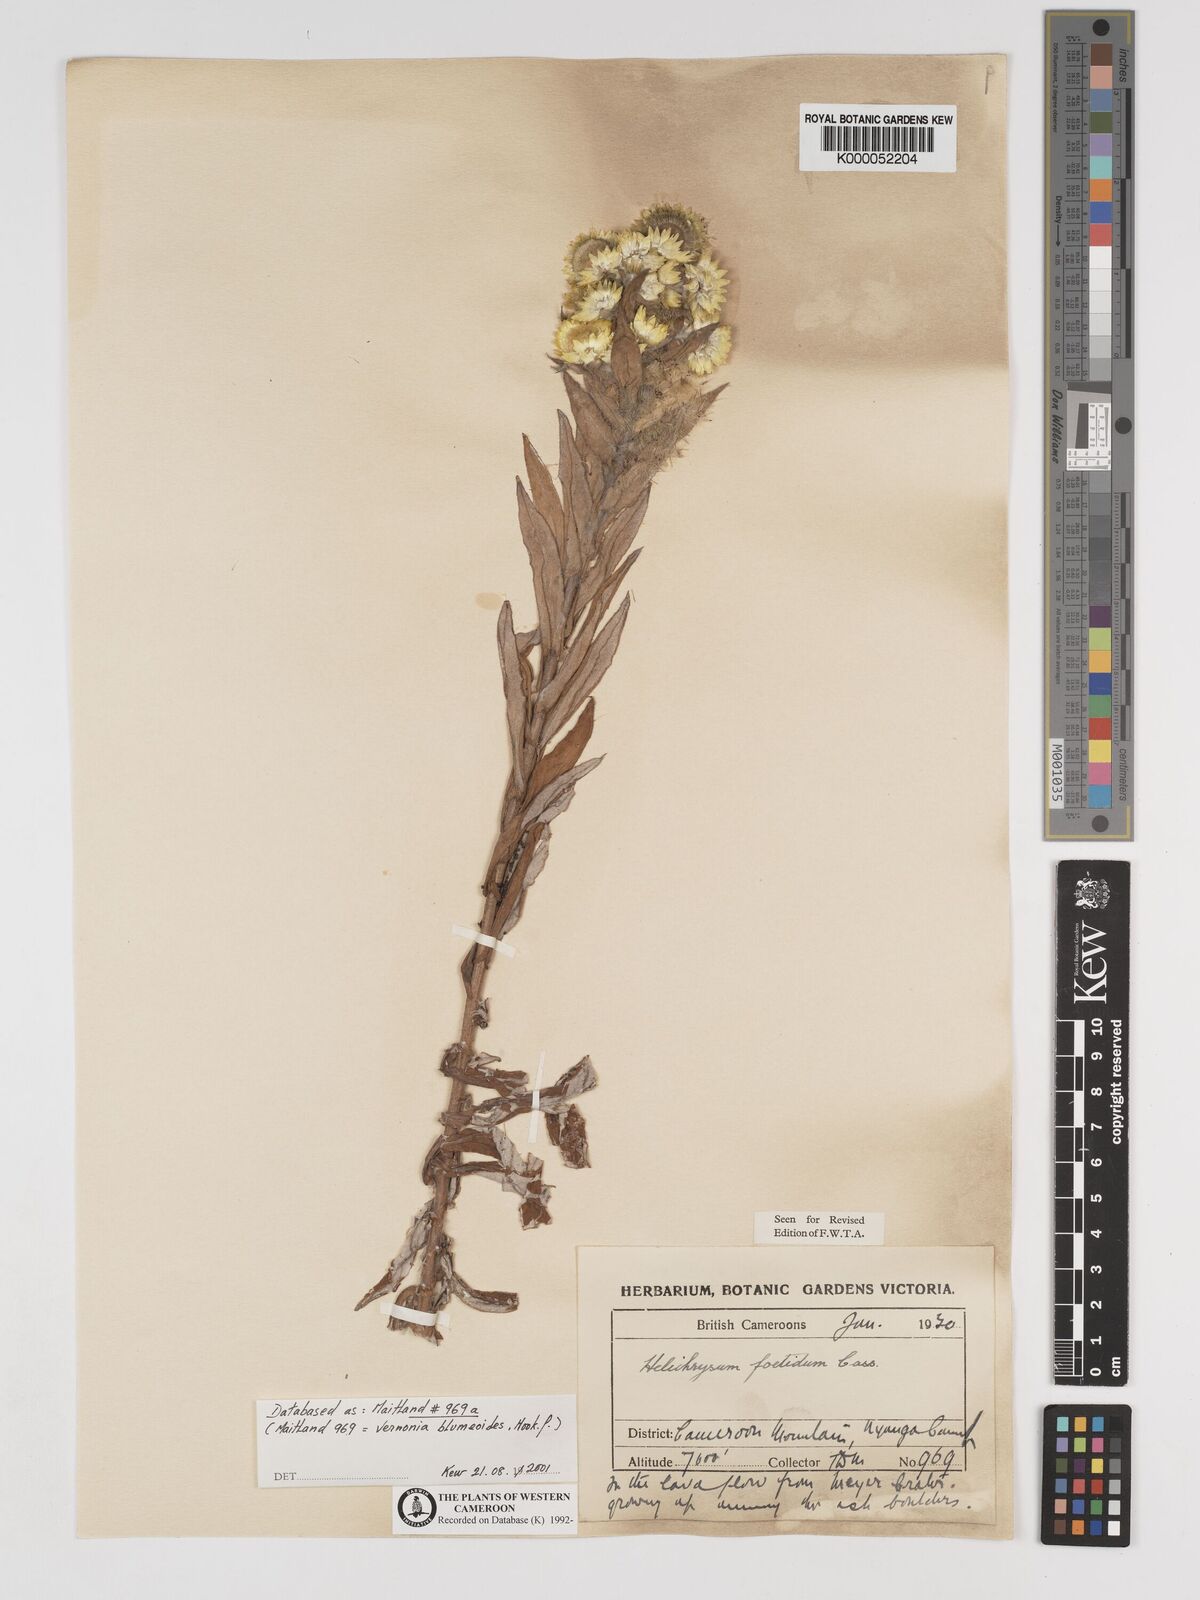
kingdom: Plantae
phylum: Tracheophyta
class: Magnoliopsida
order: Asterales
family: Asteraceae
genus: Helichrysum
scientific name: Helichrysum foetidum
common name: Stinking everlasting
